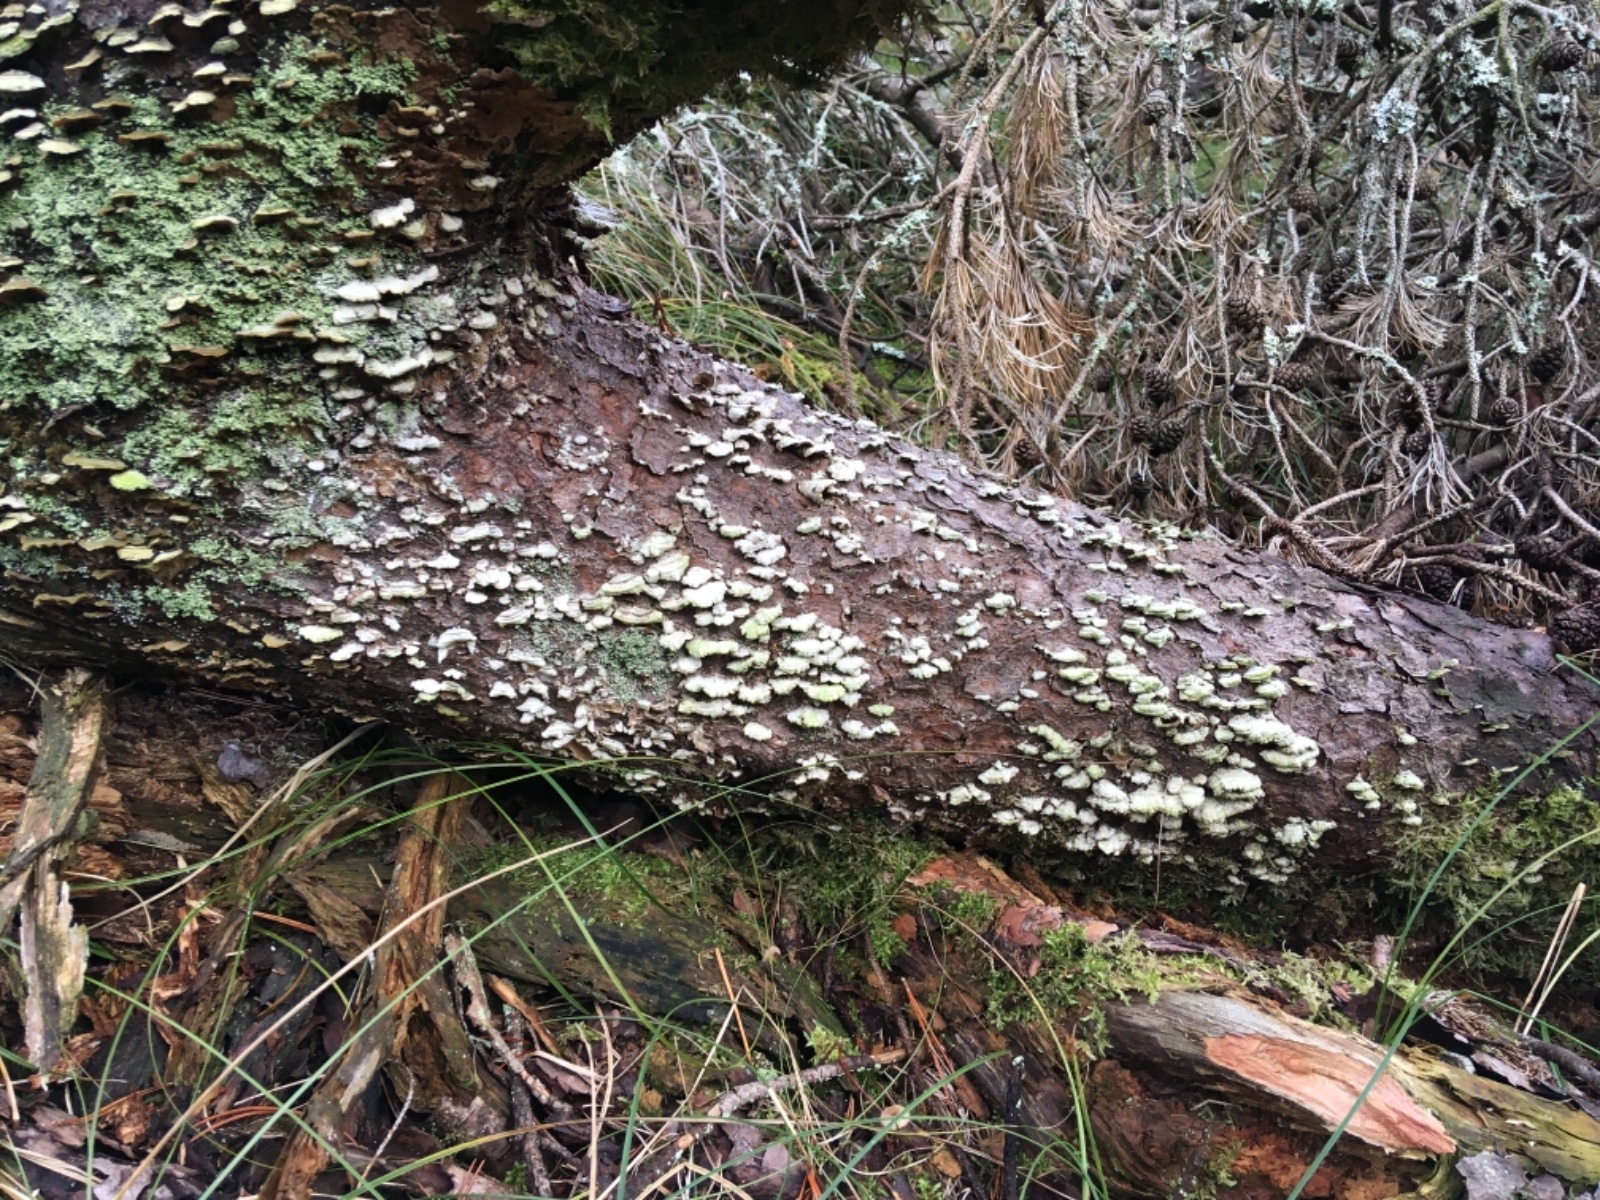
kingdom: Fungi
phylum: Basidiomycota
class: Agaricomycetes
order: Hymenochaetales
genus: Trichaptum
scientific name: Trichaptum abietinum
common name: almindelig violporesvamp
